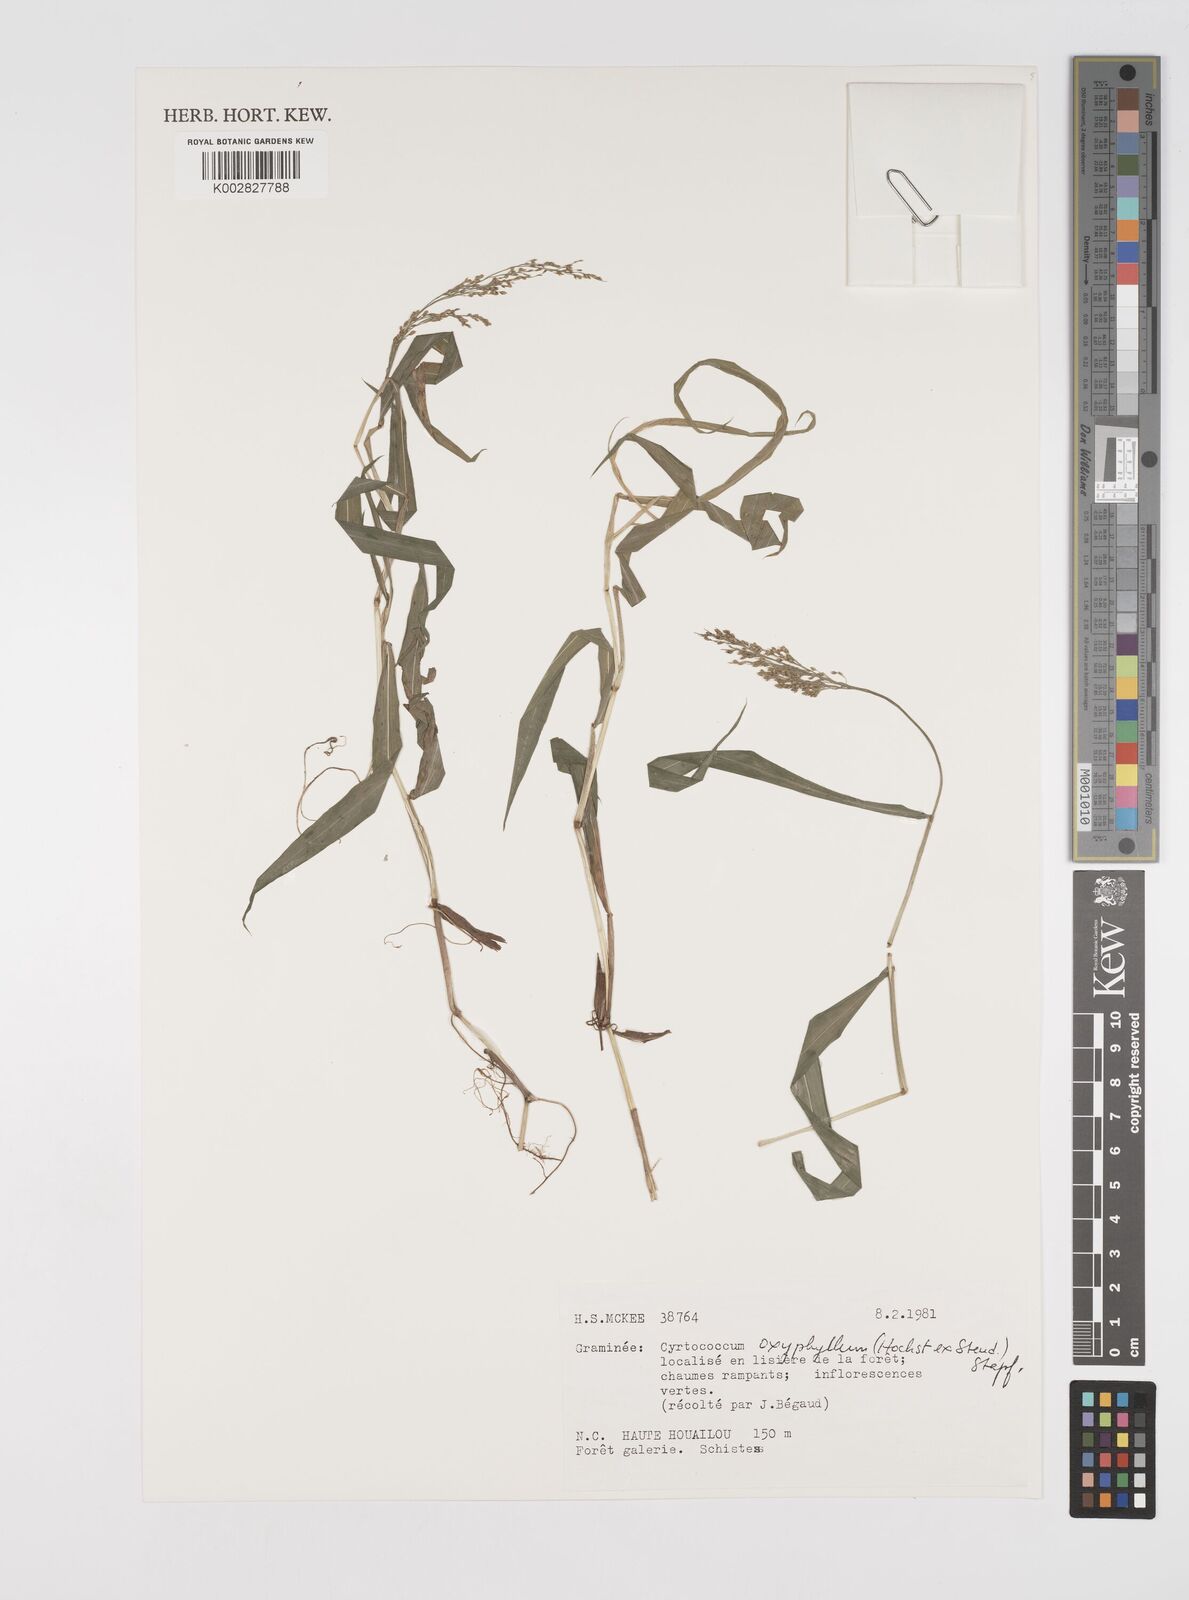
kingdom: Plantae
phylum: Tracheophyta
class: Liliopsida
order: Poales
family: Poaceae
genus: Cyrtococcum
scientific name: Cyrtococcum oxyphyllum
